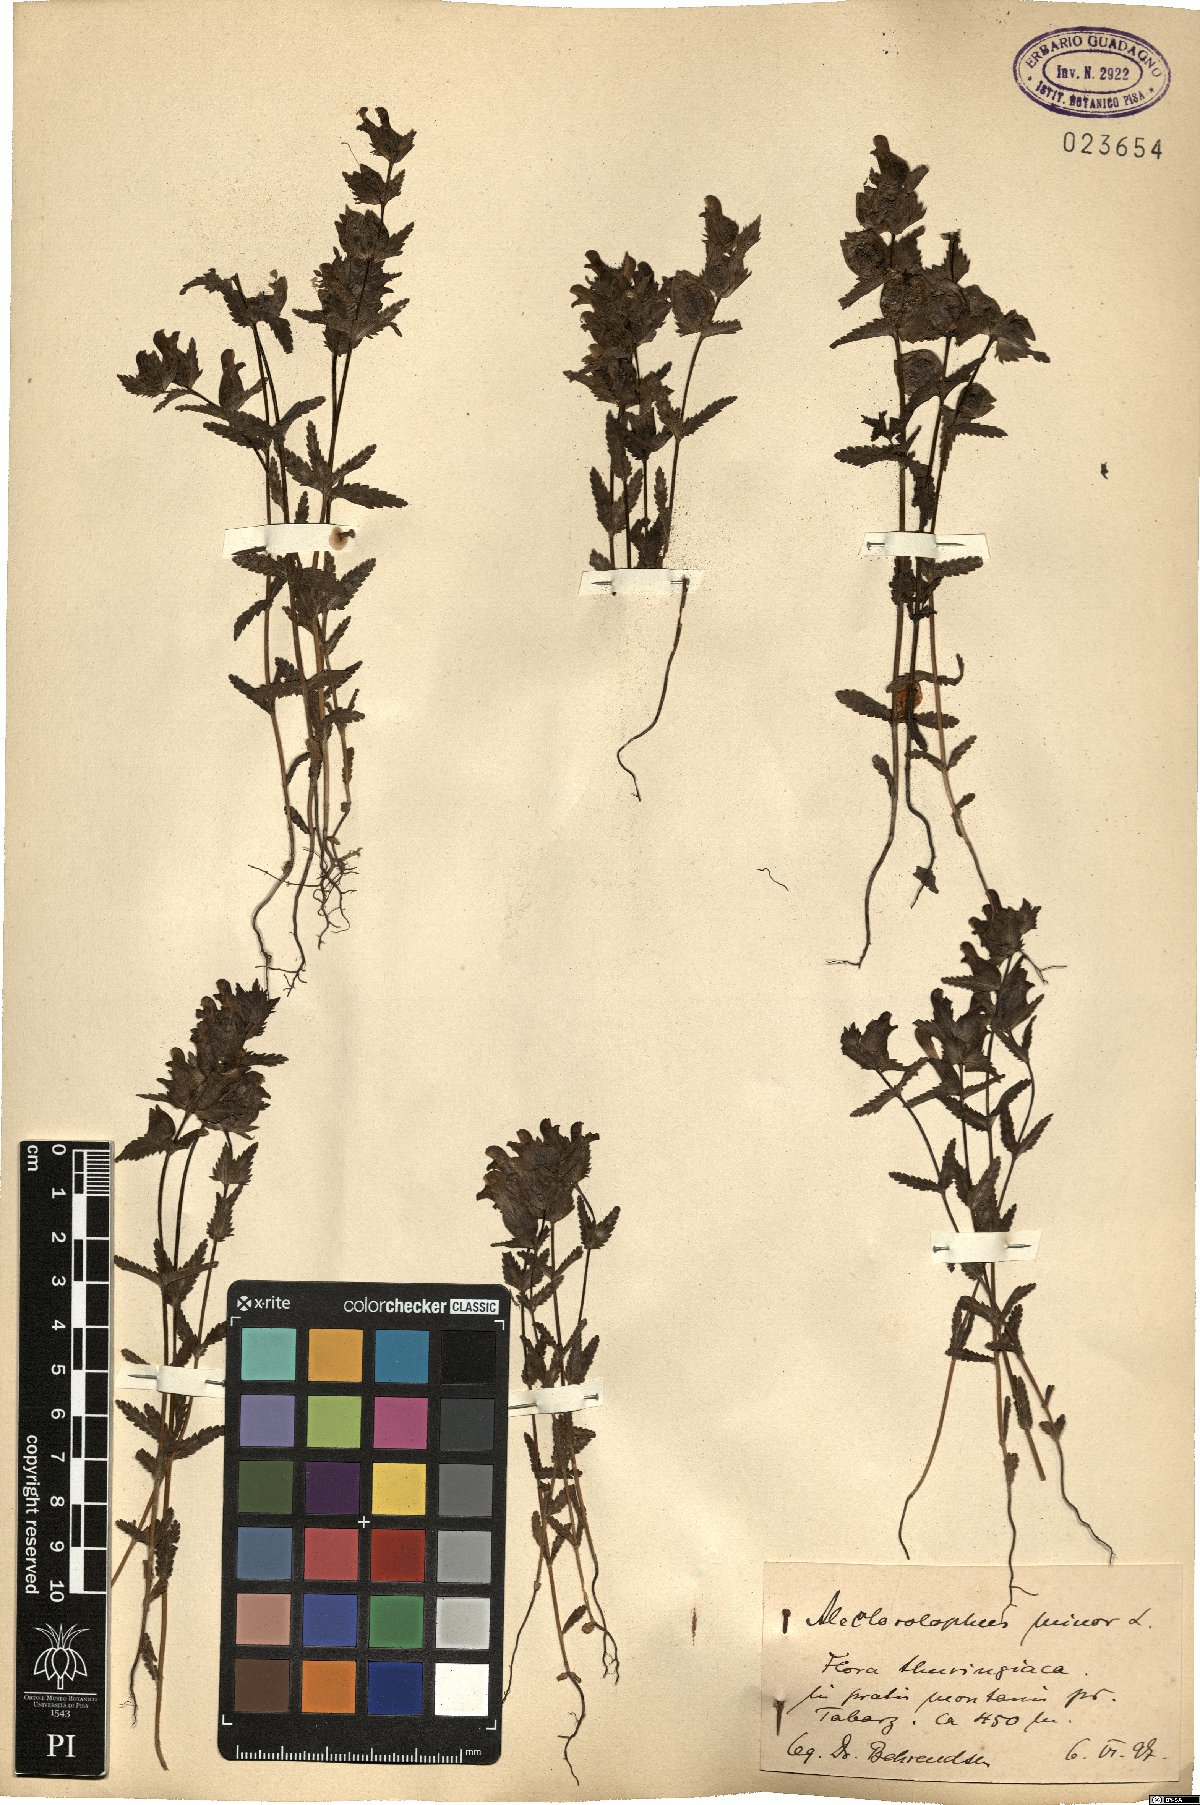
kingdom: Plantae
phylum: Tracheophyta
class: Magnoliopsida
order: Lamiales
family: Orobanchaceae
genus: Rhinanthus
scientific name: Rhinanthus minor
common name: Yellow-rattle
